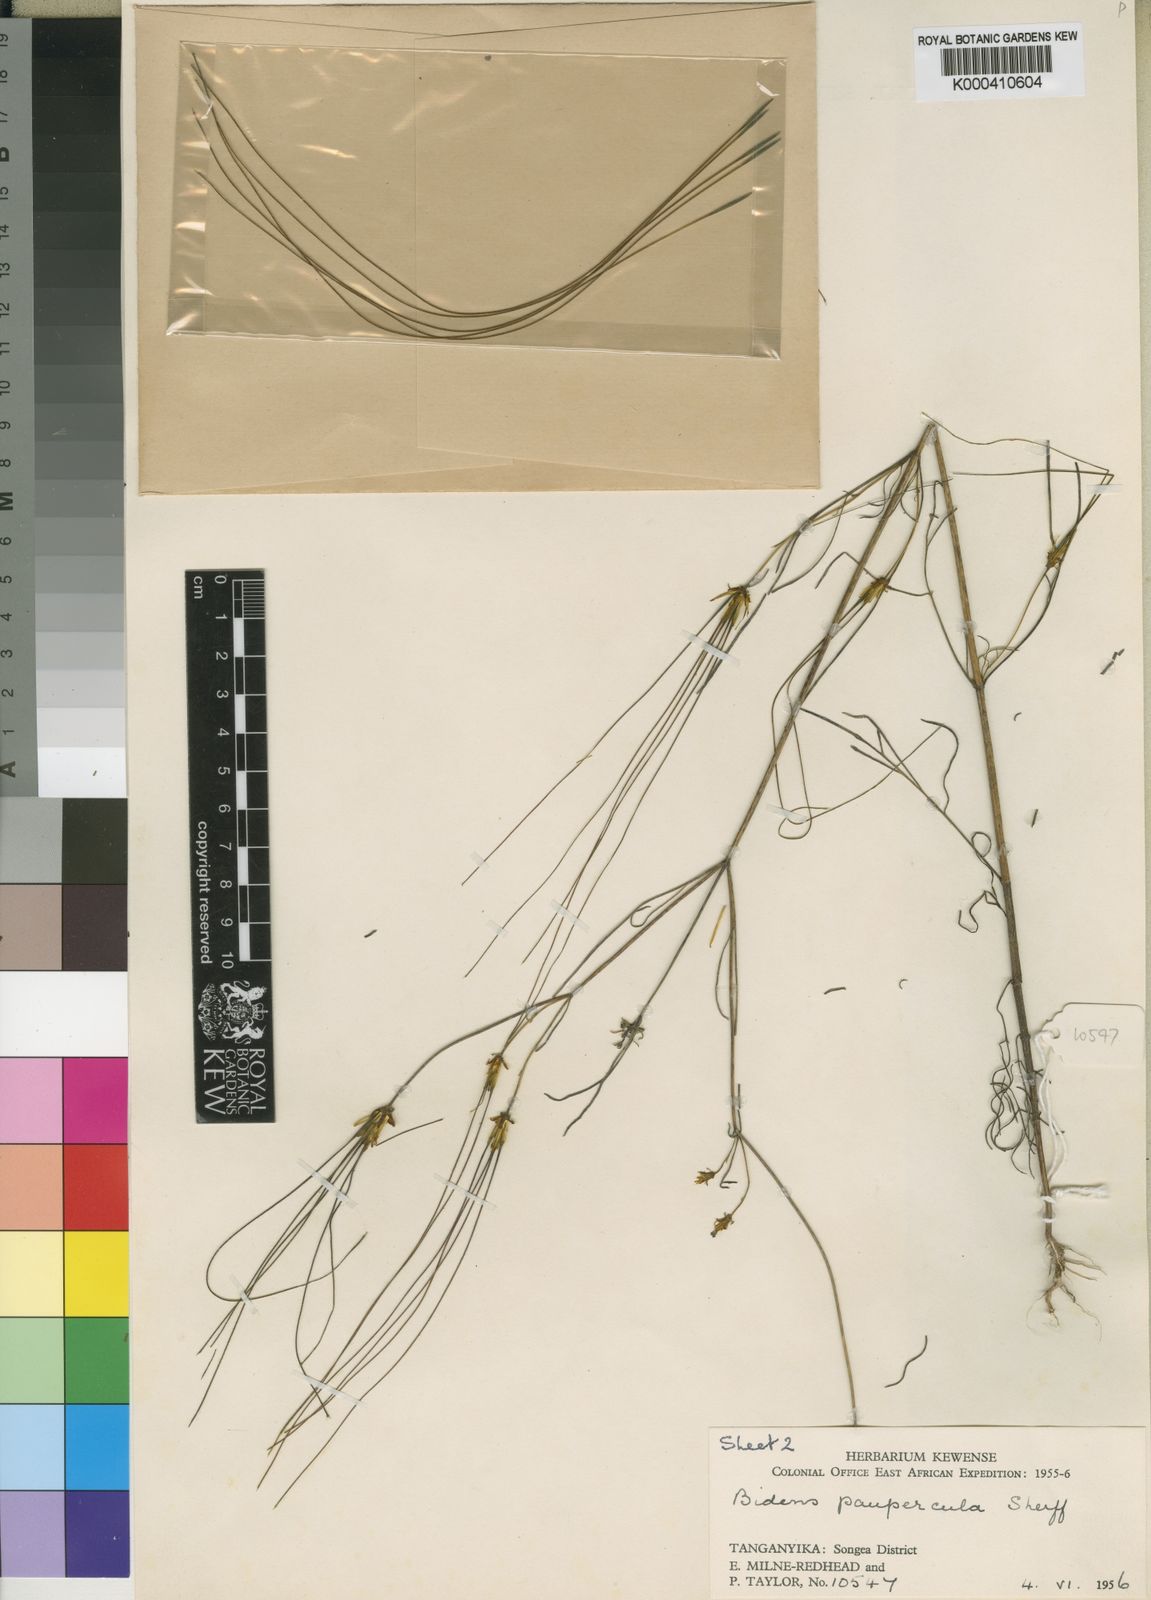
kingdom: Plantae
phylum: Tracheophyta
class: Magnoliopsida
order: Asterales
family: Asteraceae
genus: Bidens
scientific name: Bidens acuticaulis
